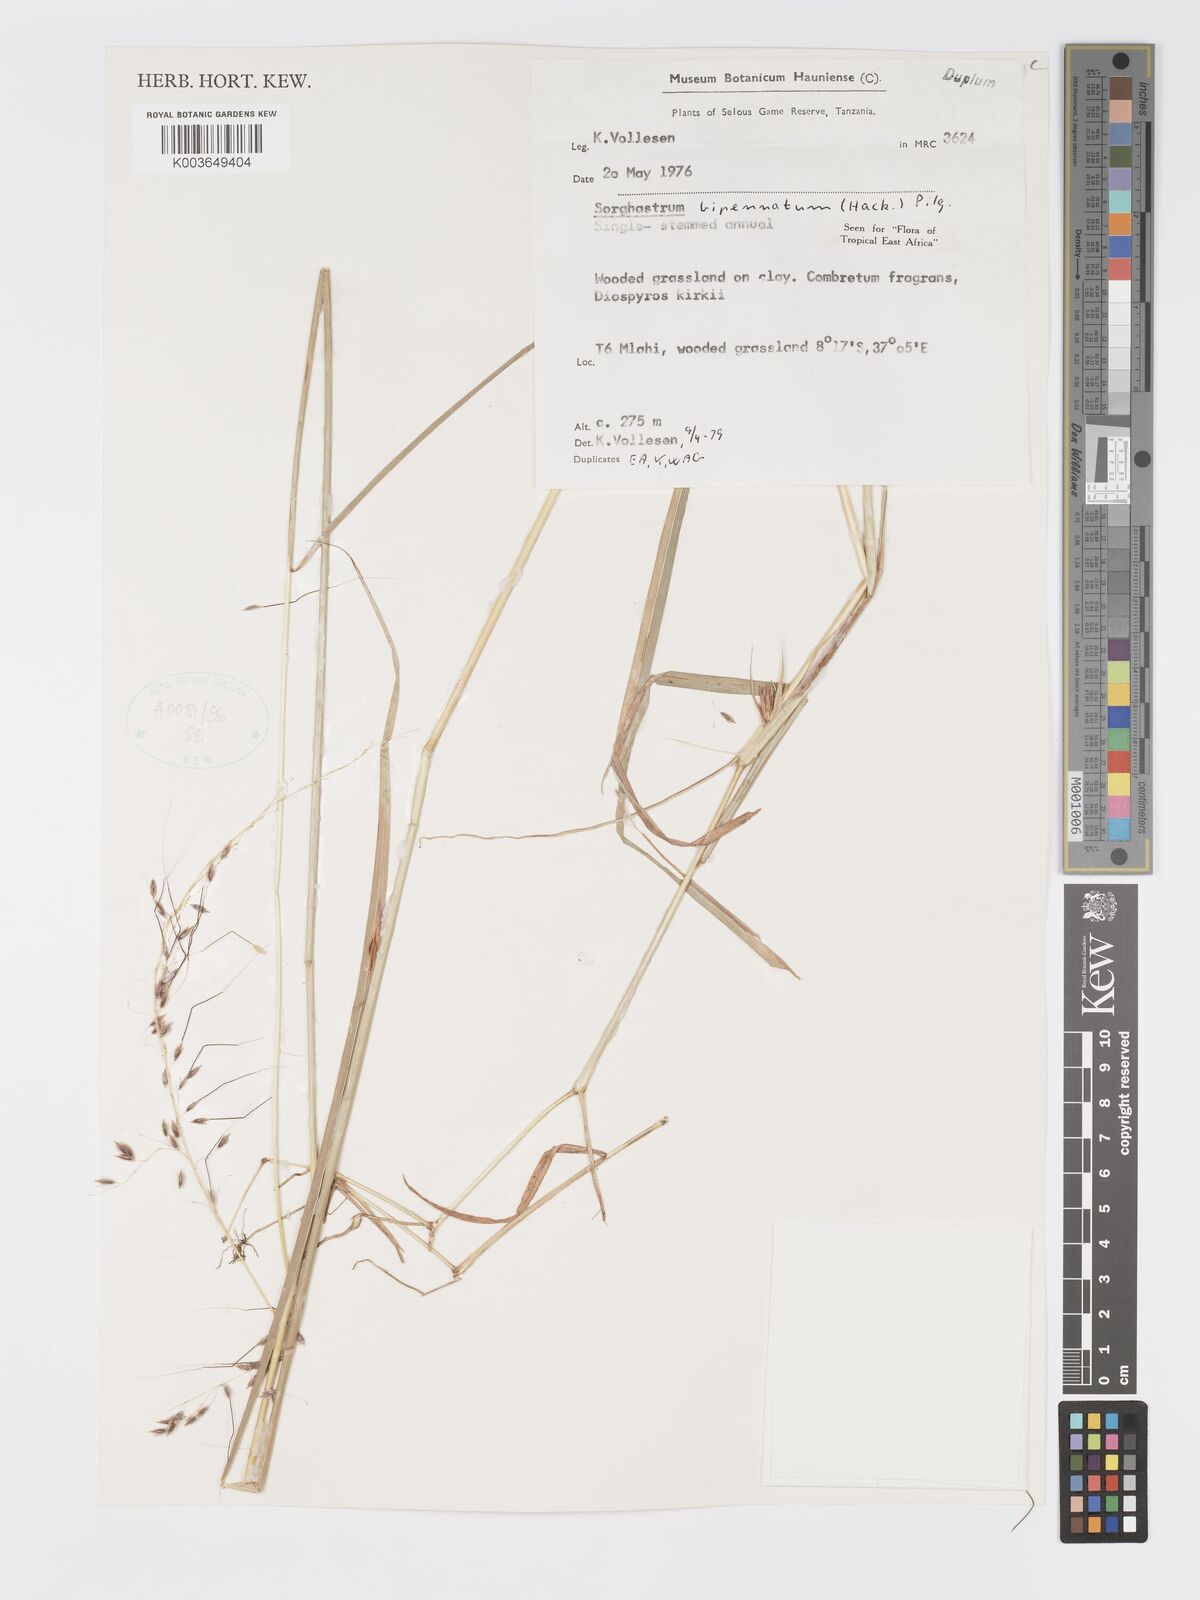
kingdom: Plantae
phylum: Tracheophyta
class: Liliopsida
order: Poales
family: Poaceae
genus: Sorghastrum
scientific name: Sorghastrum incompletum
